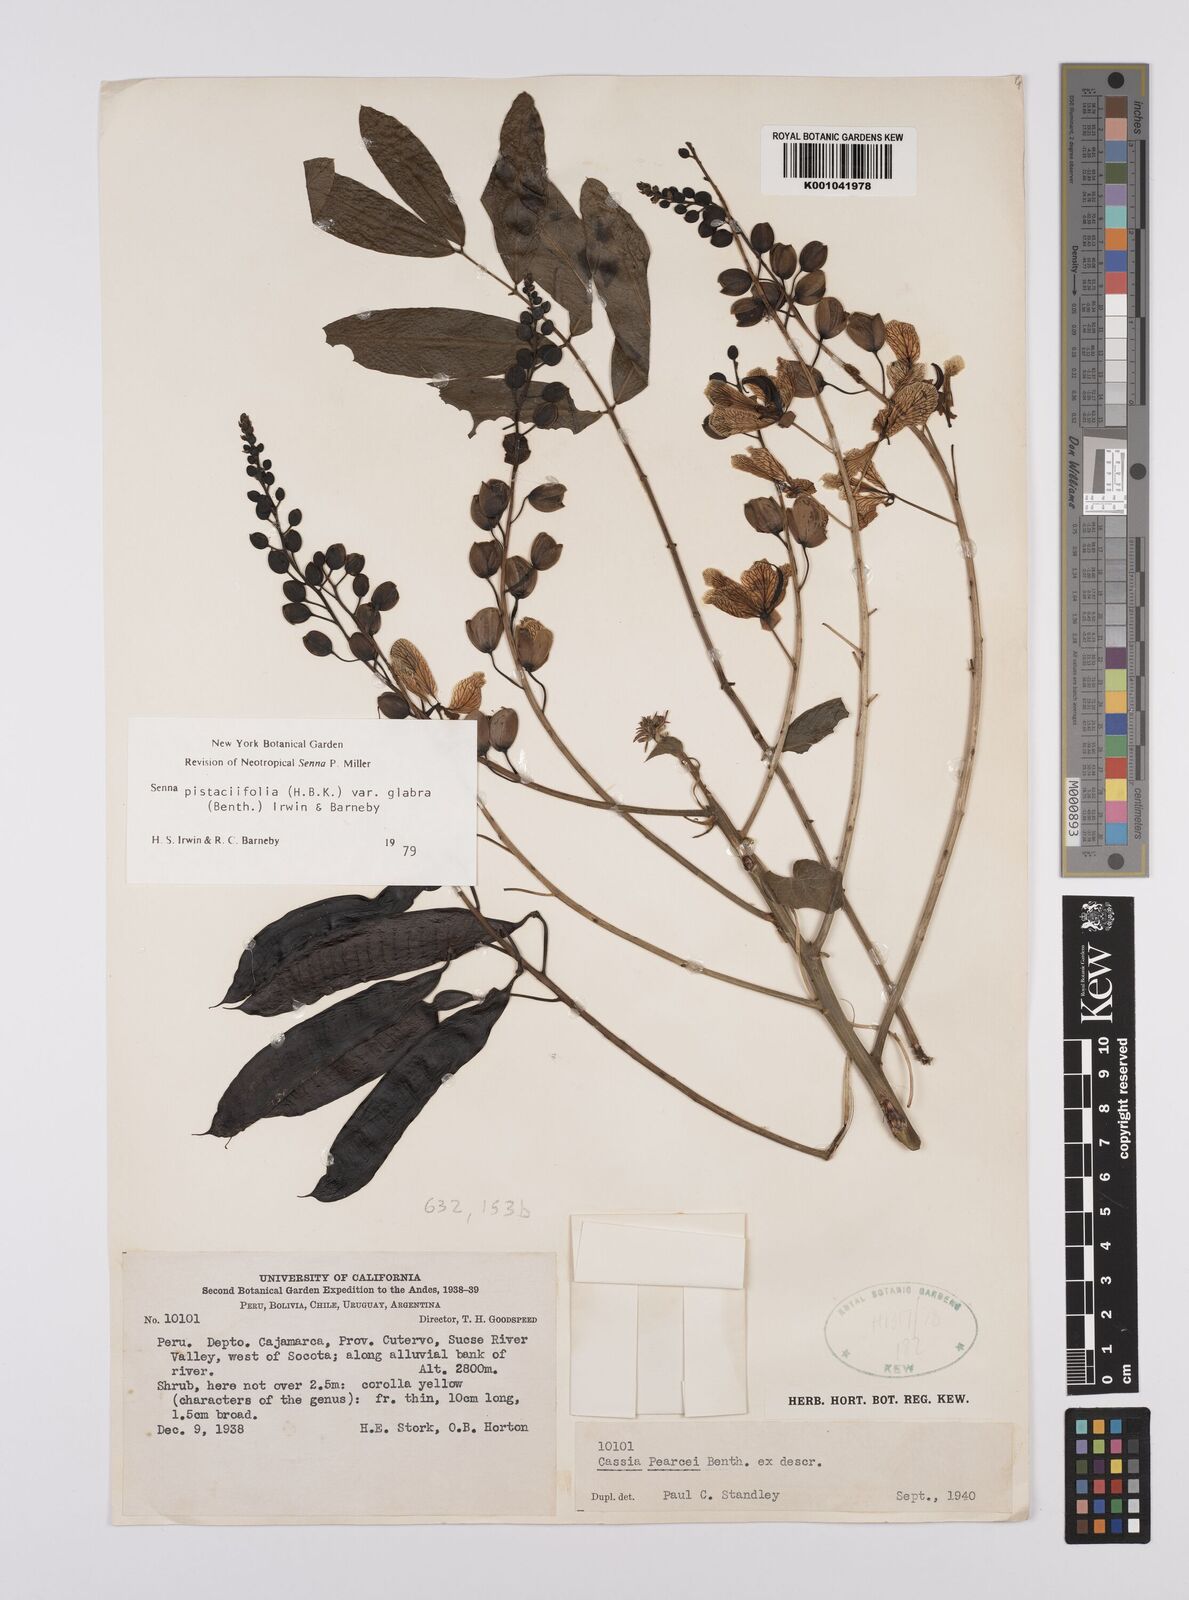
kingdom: Plantae
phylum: Tracheophyta
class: Magnoliopsida
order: Fabales
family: Fabaceae
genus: Senna
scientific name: Senna pistaciifolia
